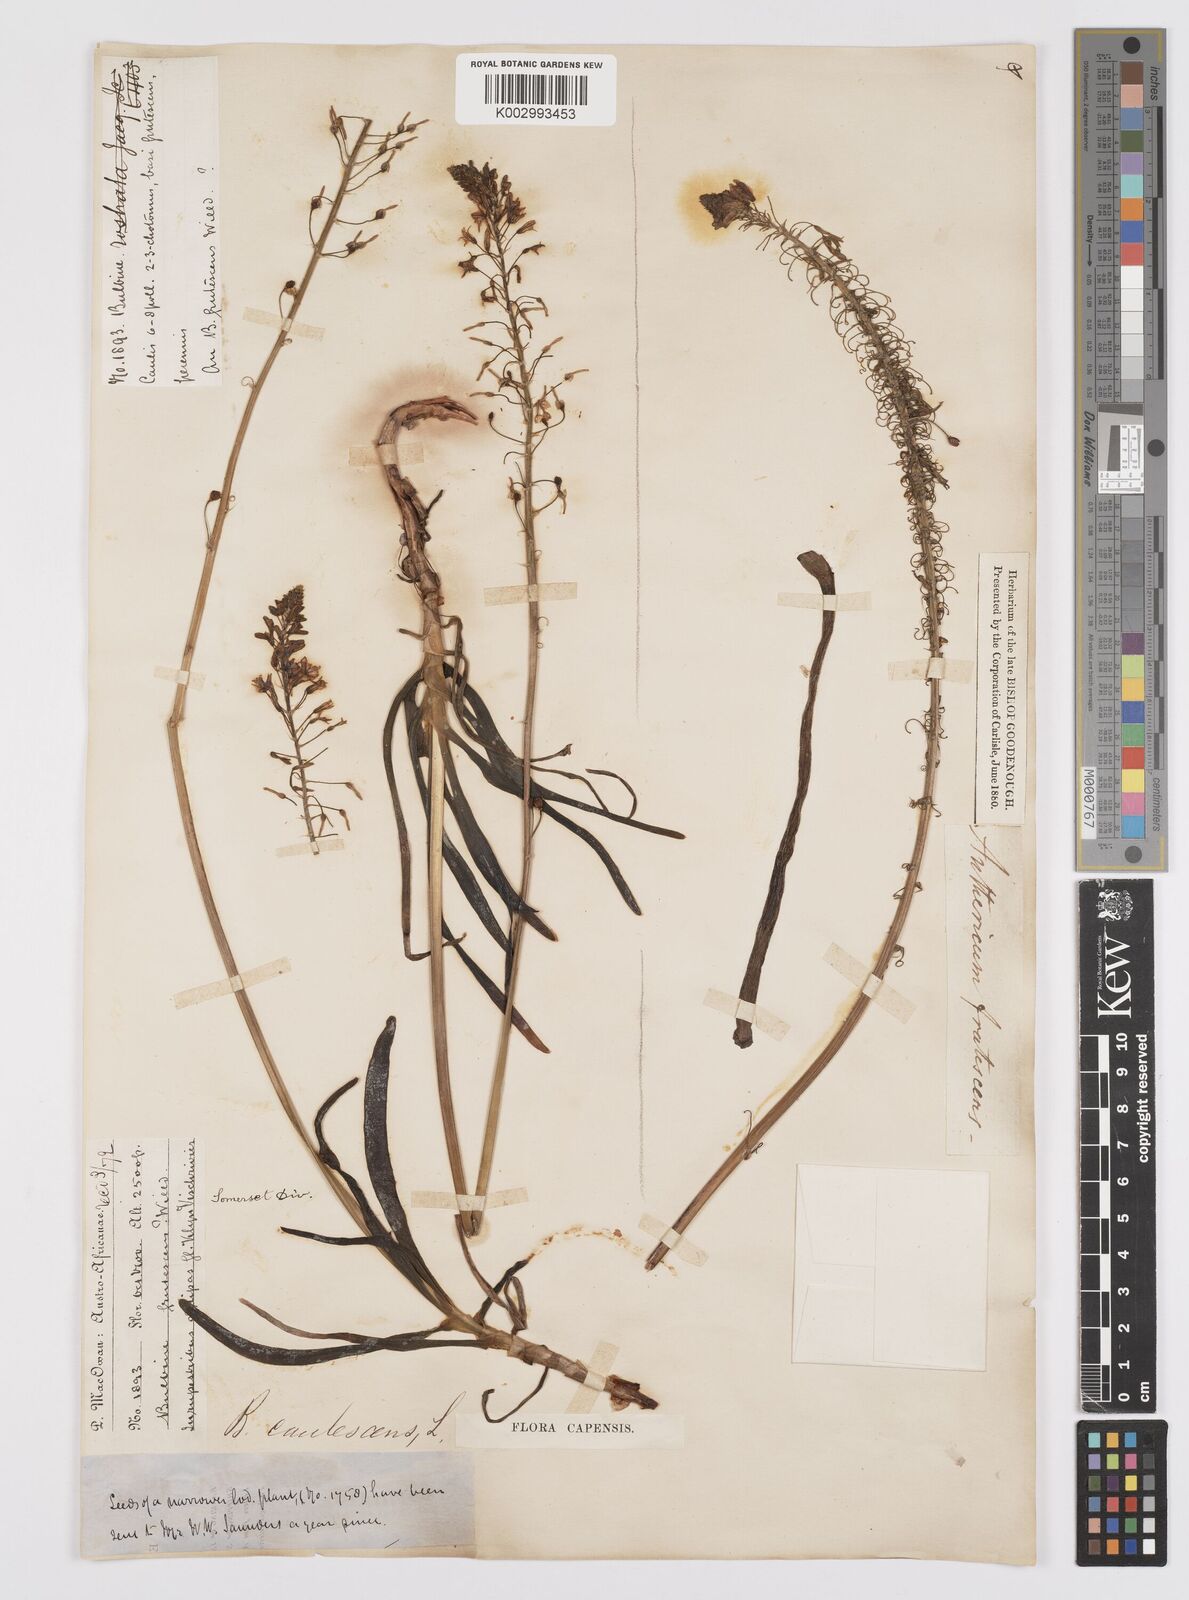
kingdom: Plantae
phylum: Tracheophyta
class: Liliopsida
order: Asparagales
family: Asphodelaceae
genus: Bulbine
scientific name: Bulbine frutescens
